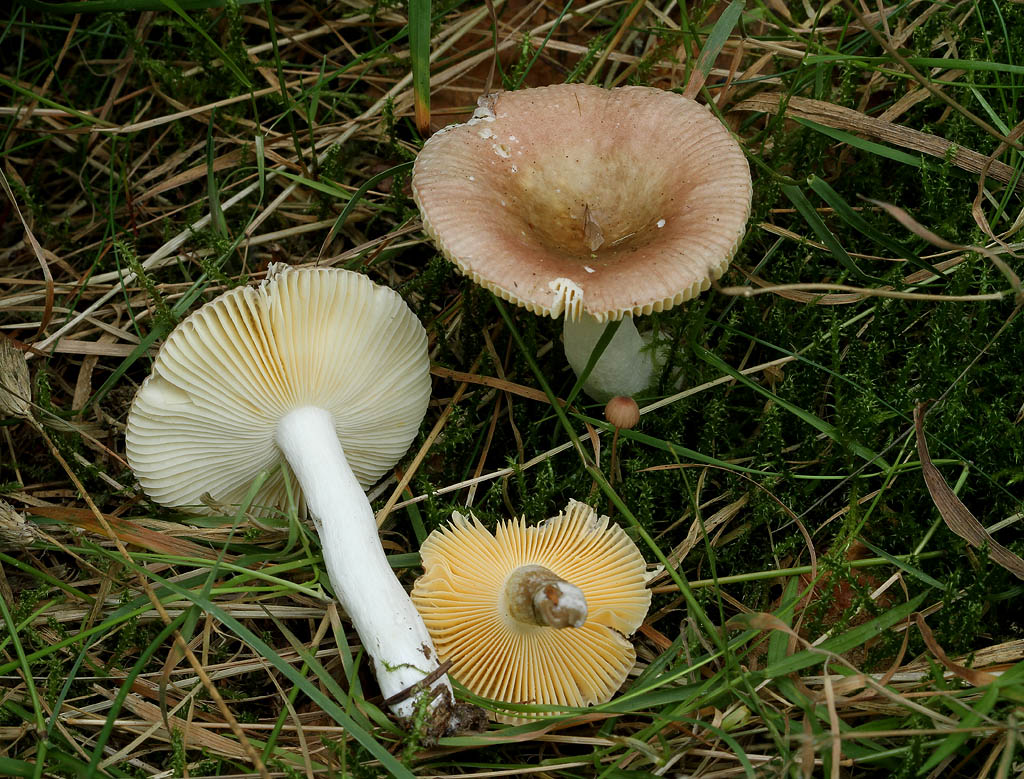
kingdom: Fungi
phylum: Basidiomycota
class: Agaricomycetes
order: Russulales
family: Russulaceae
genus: Russula
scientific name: Russula nauseosa
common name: spinkel skørhat
